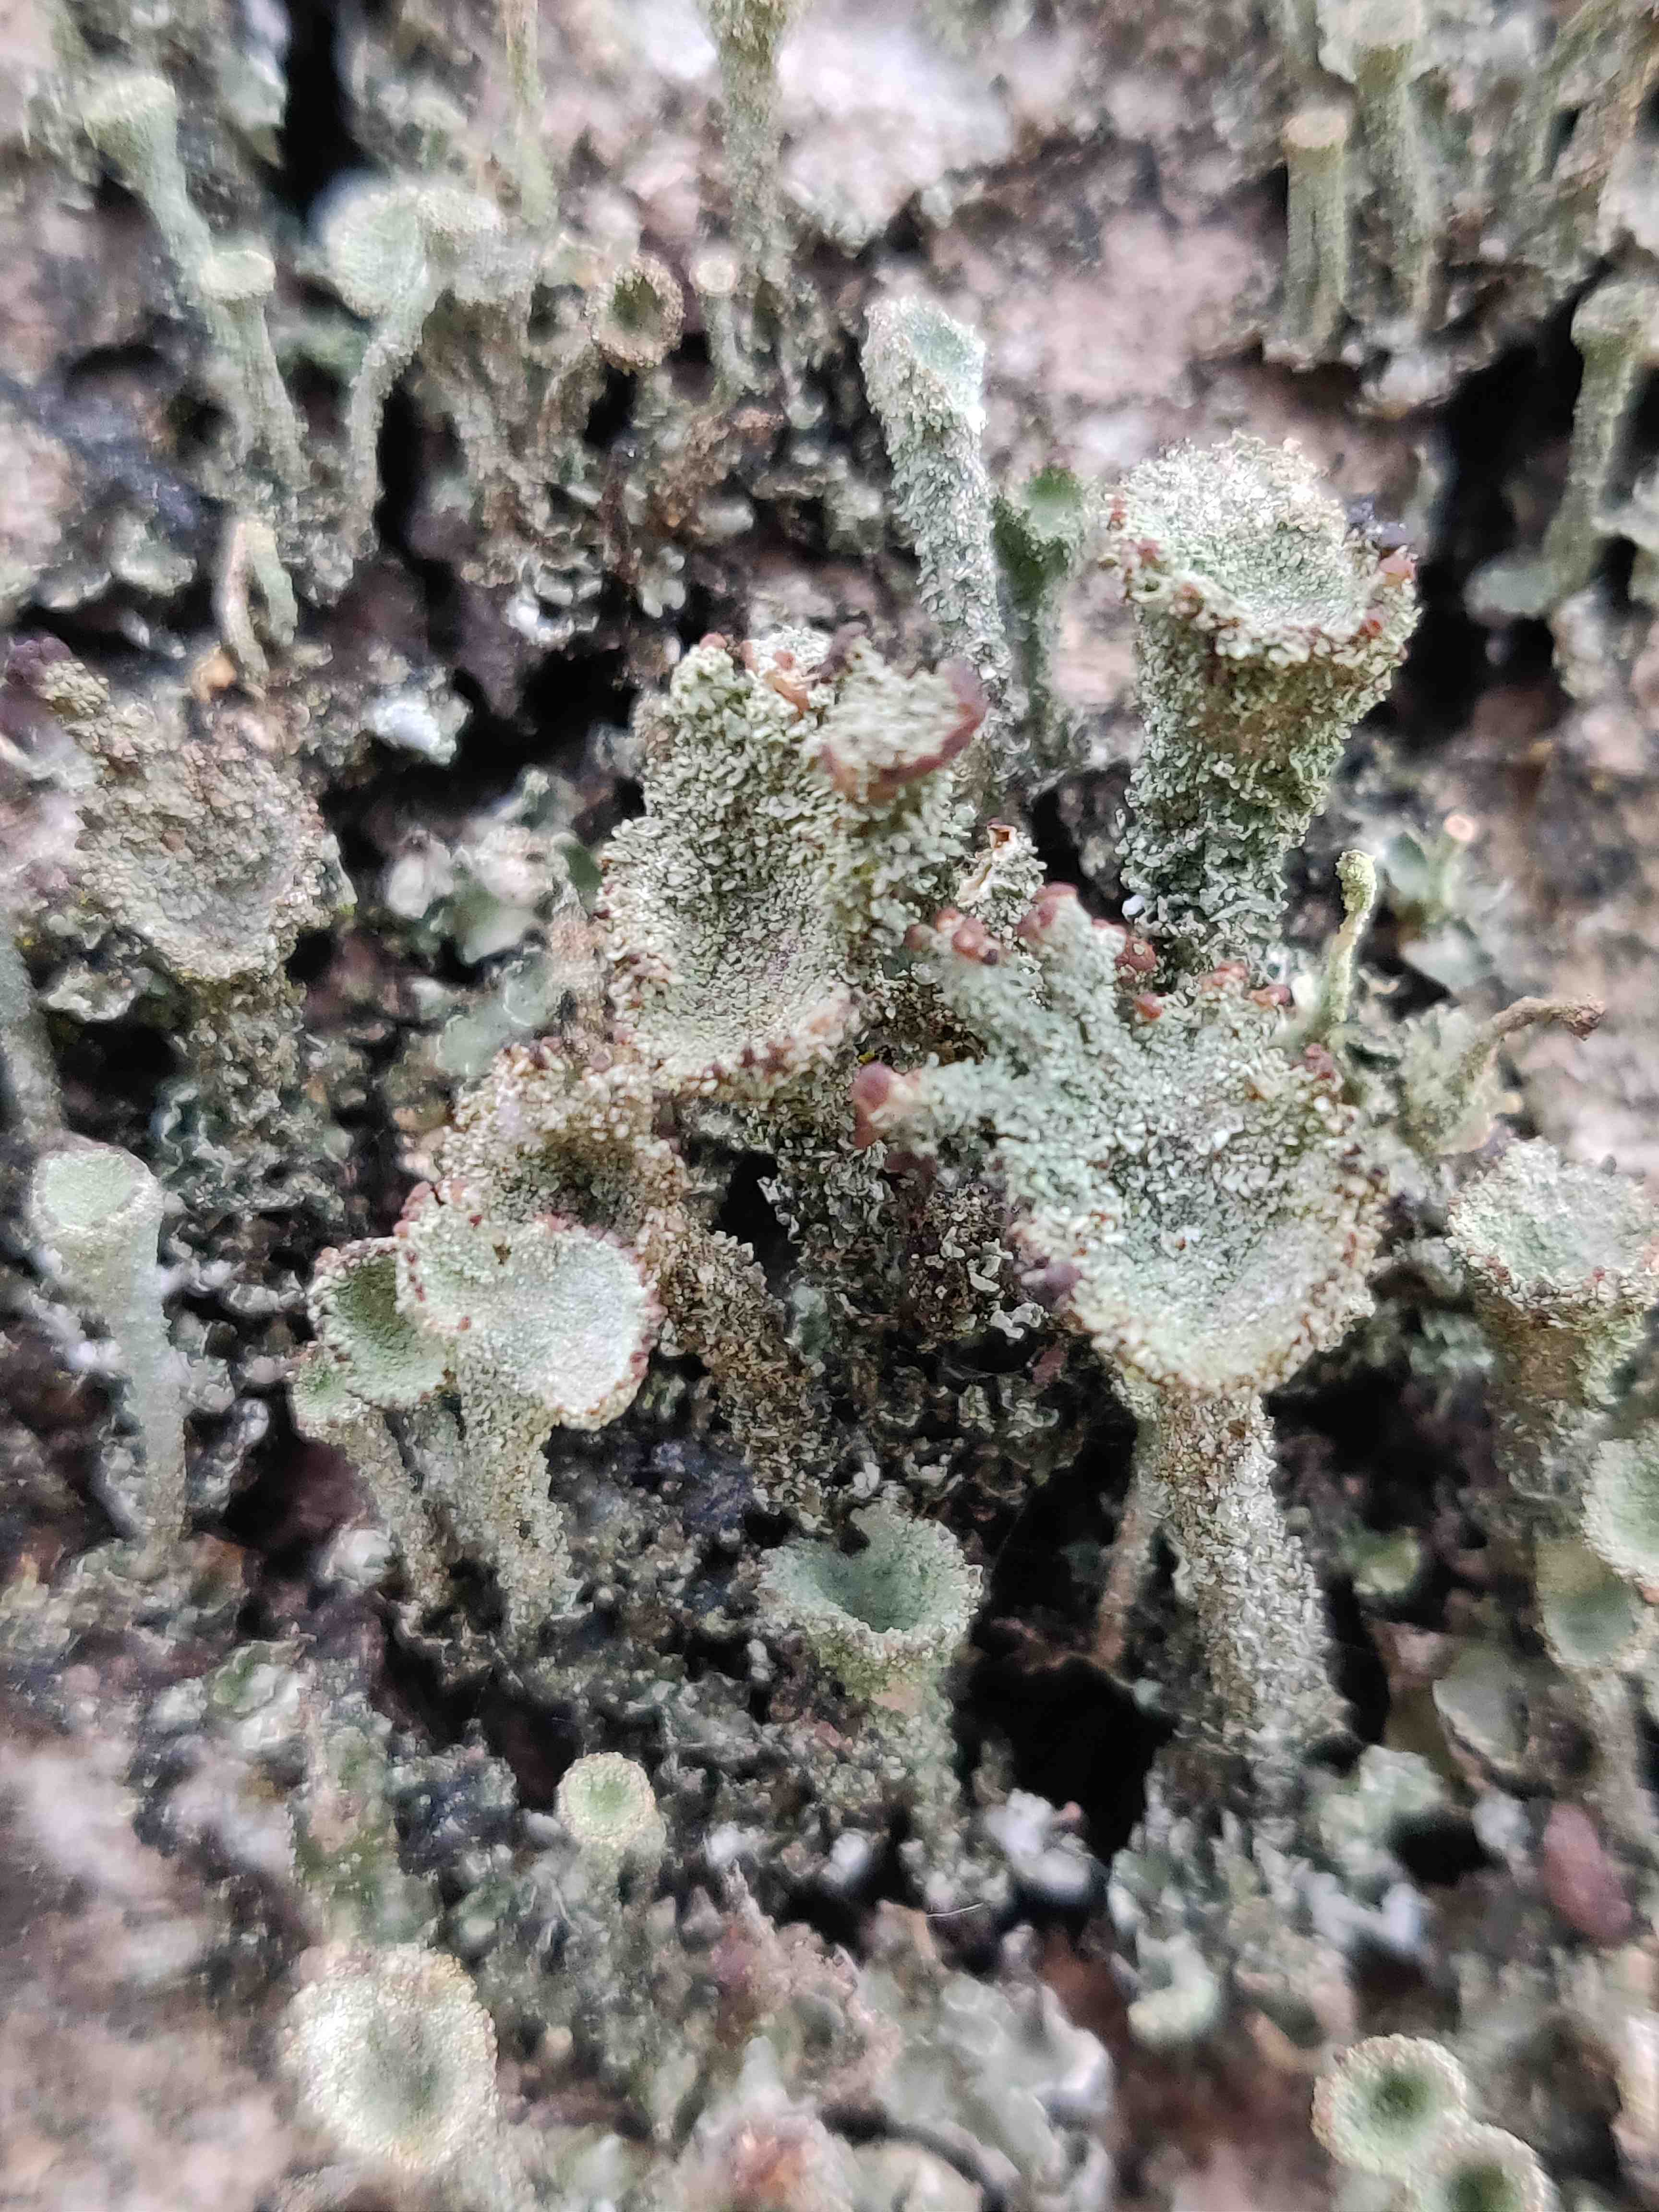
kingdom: Fungi
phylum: Ascomycota
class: Lecanoromycetes
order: Lecanorales
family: Cladoniaceae
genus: Cladonia
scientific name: Cladonia
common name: brungrøn bægerlav
